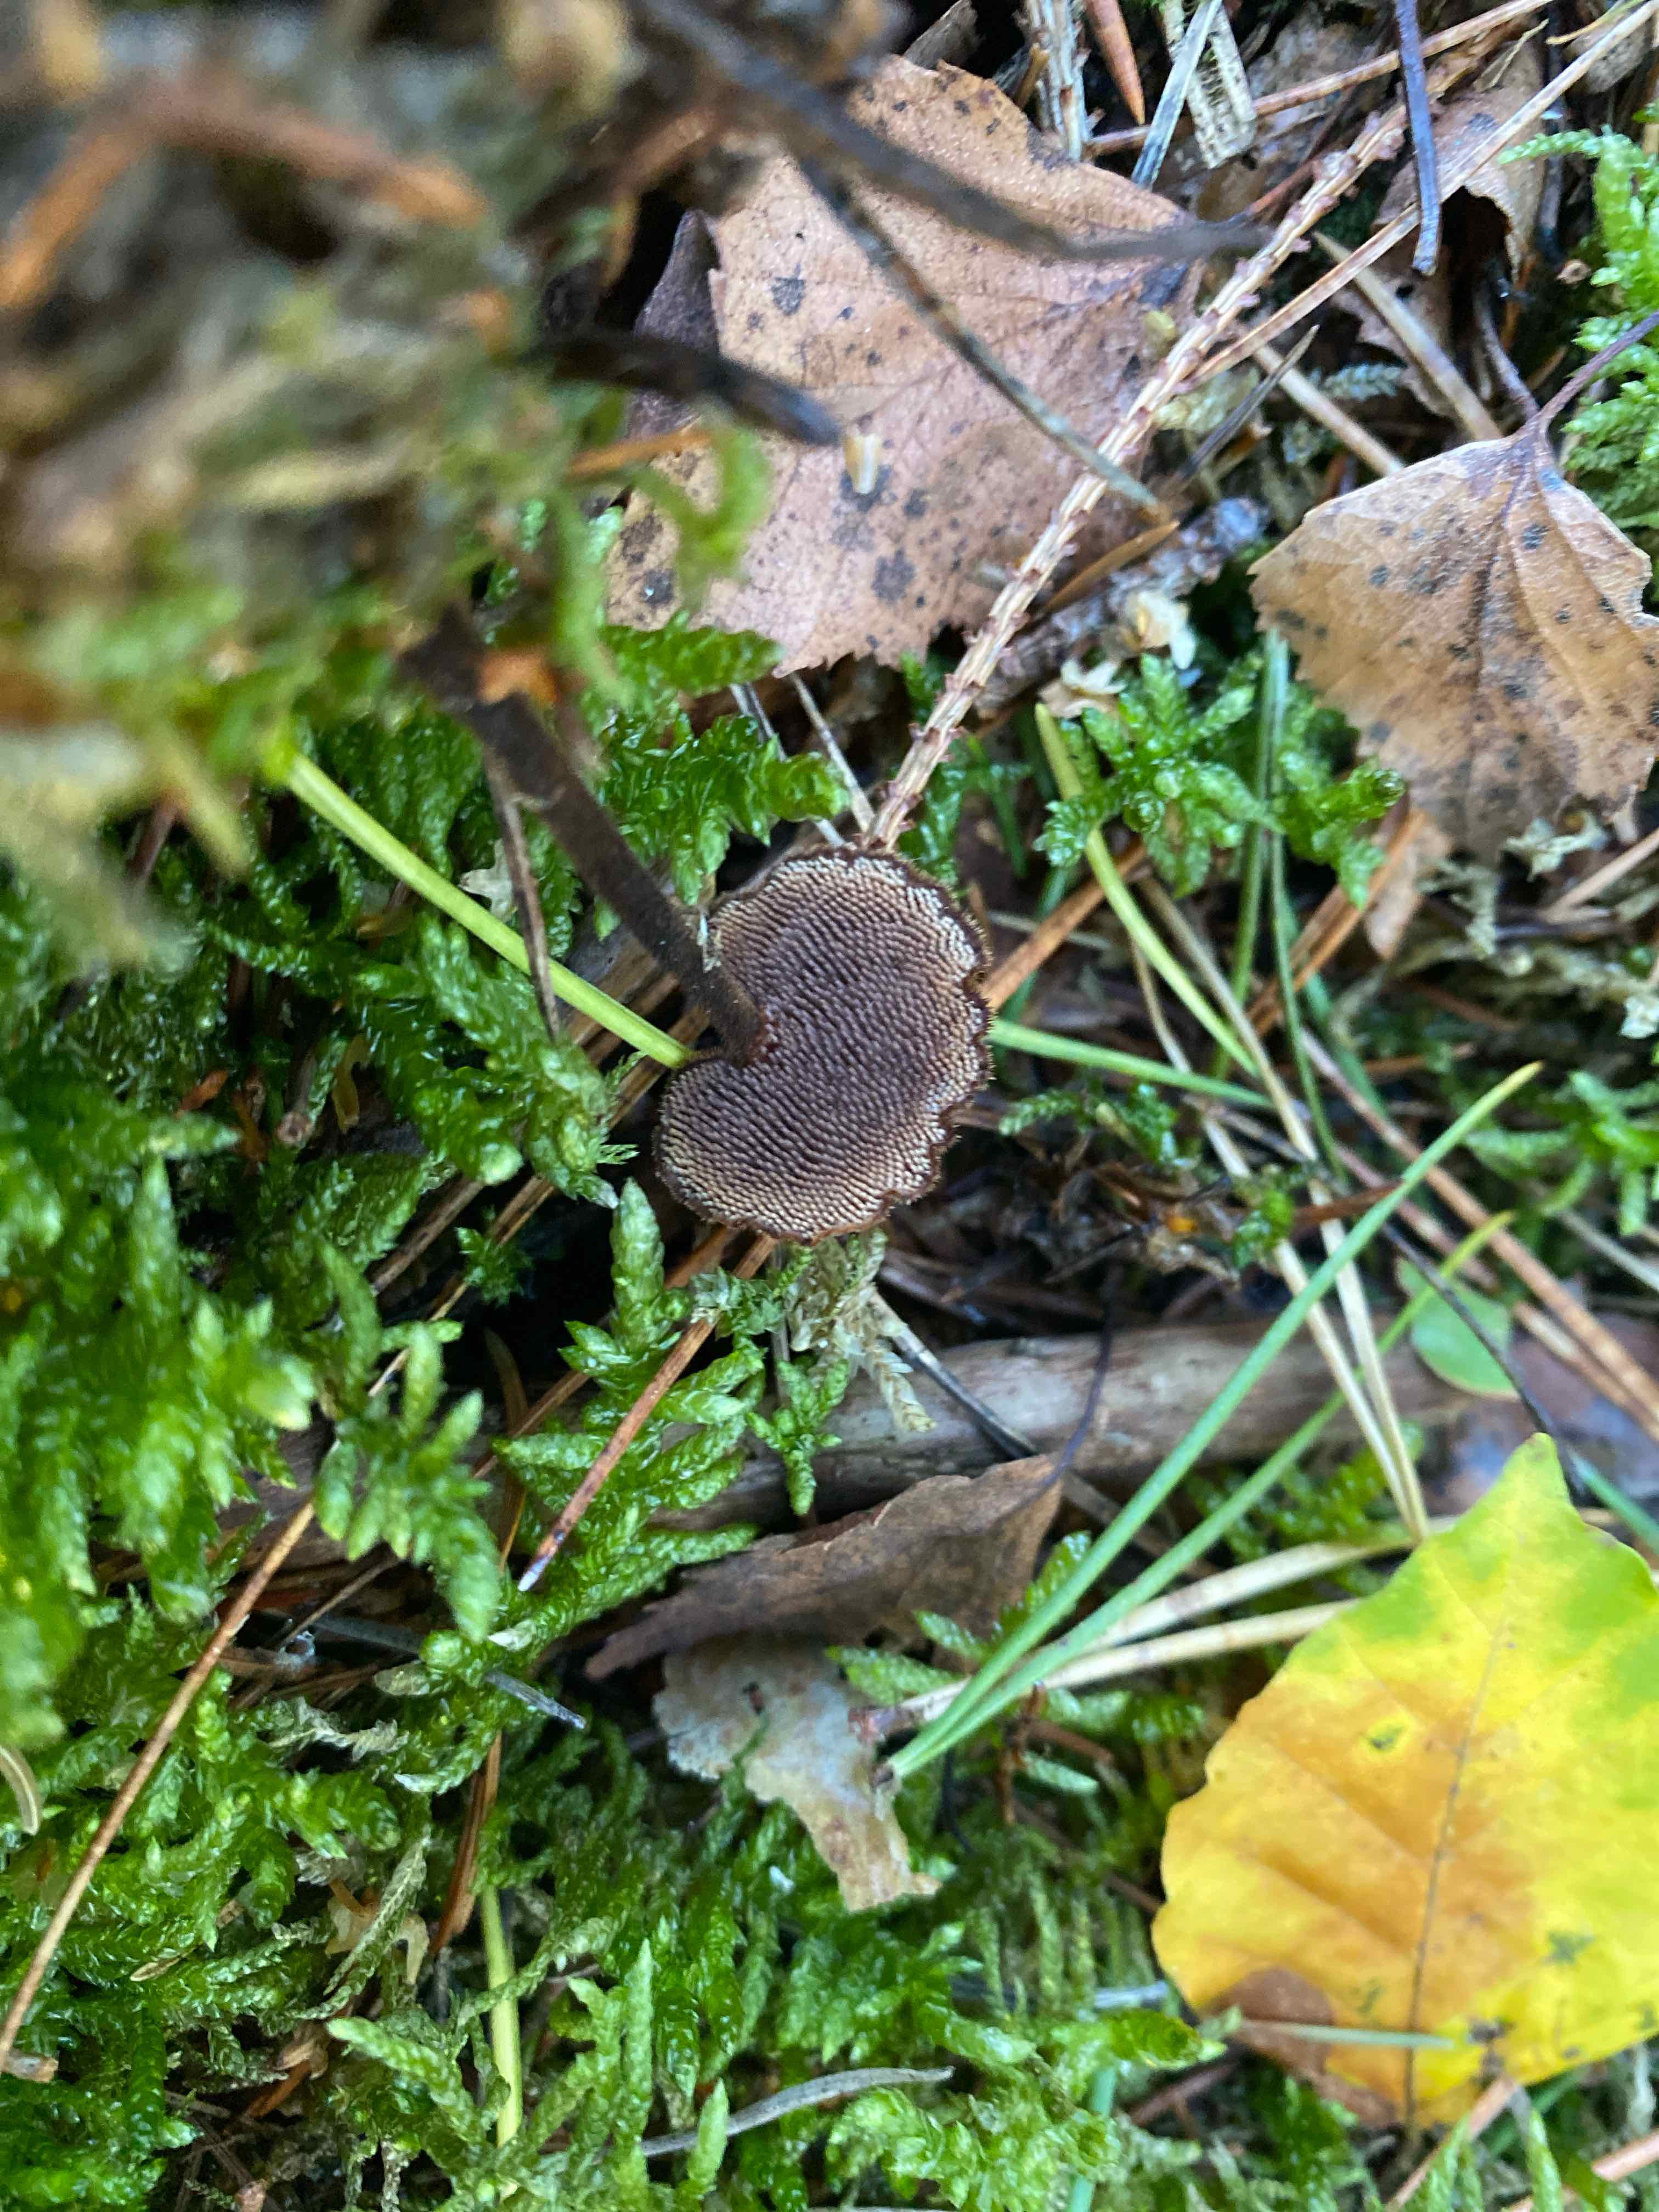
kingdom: Fungi
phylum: Basidiomycota
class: Agaricomycetes
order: Russulales
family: Auriscalpiaceae
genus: Auriscalpium
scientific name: Auriscalpium vulgare
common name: koglepigsvamp
